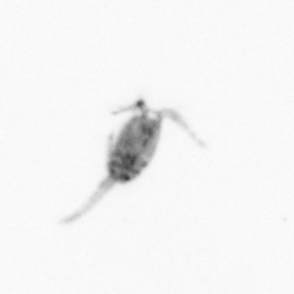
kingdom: Animalia
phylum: Arthropoda
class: Copepoda
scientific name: Copepoda
